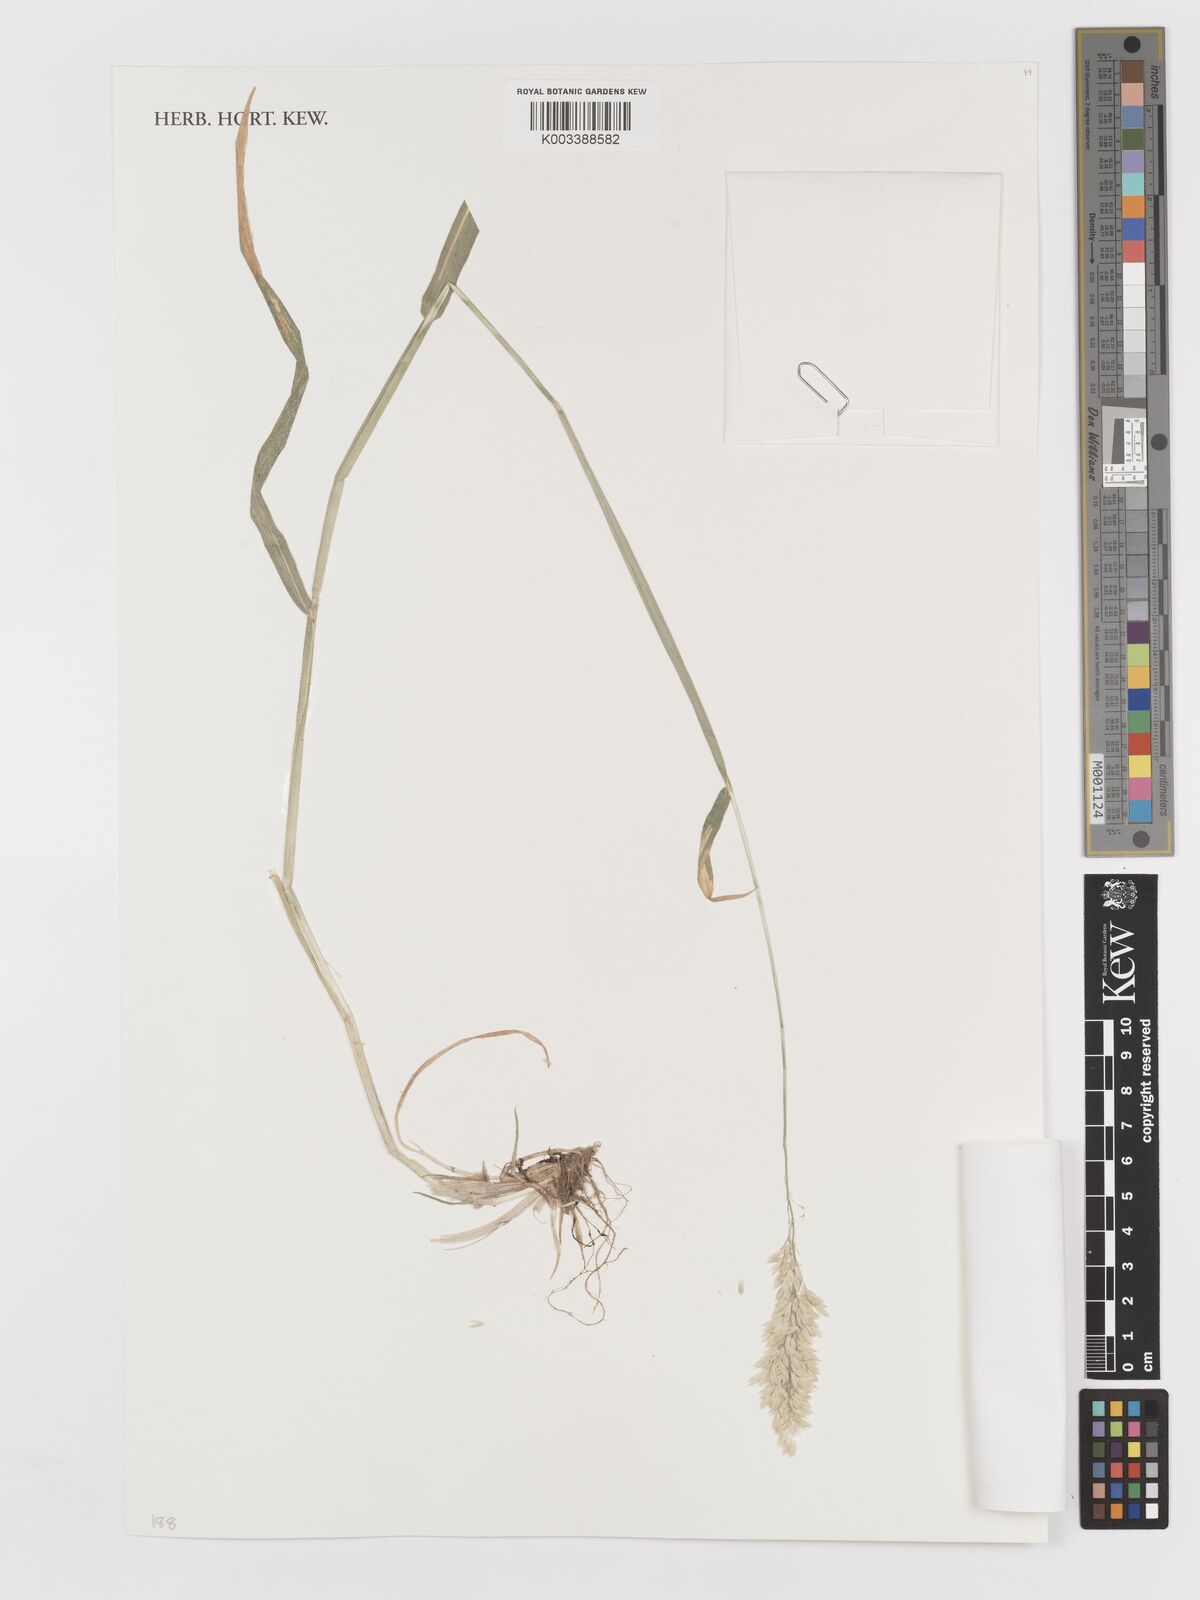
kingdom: Plantae
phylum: Tracheophyta
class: Liliopsida
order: Poales
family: Poaceae
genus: Holcus
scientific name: Holcus lanatus
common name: Yorkshire-fog
